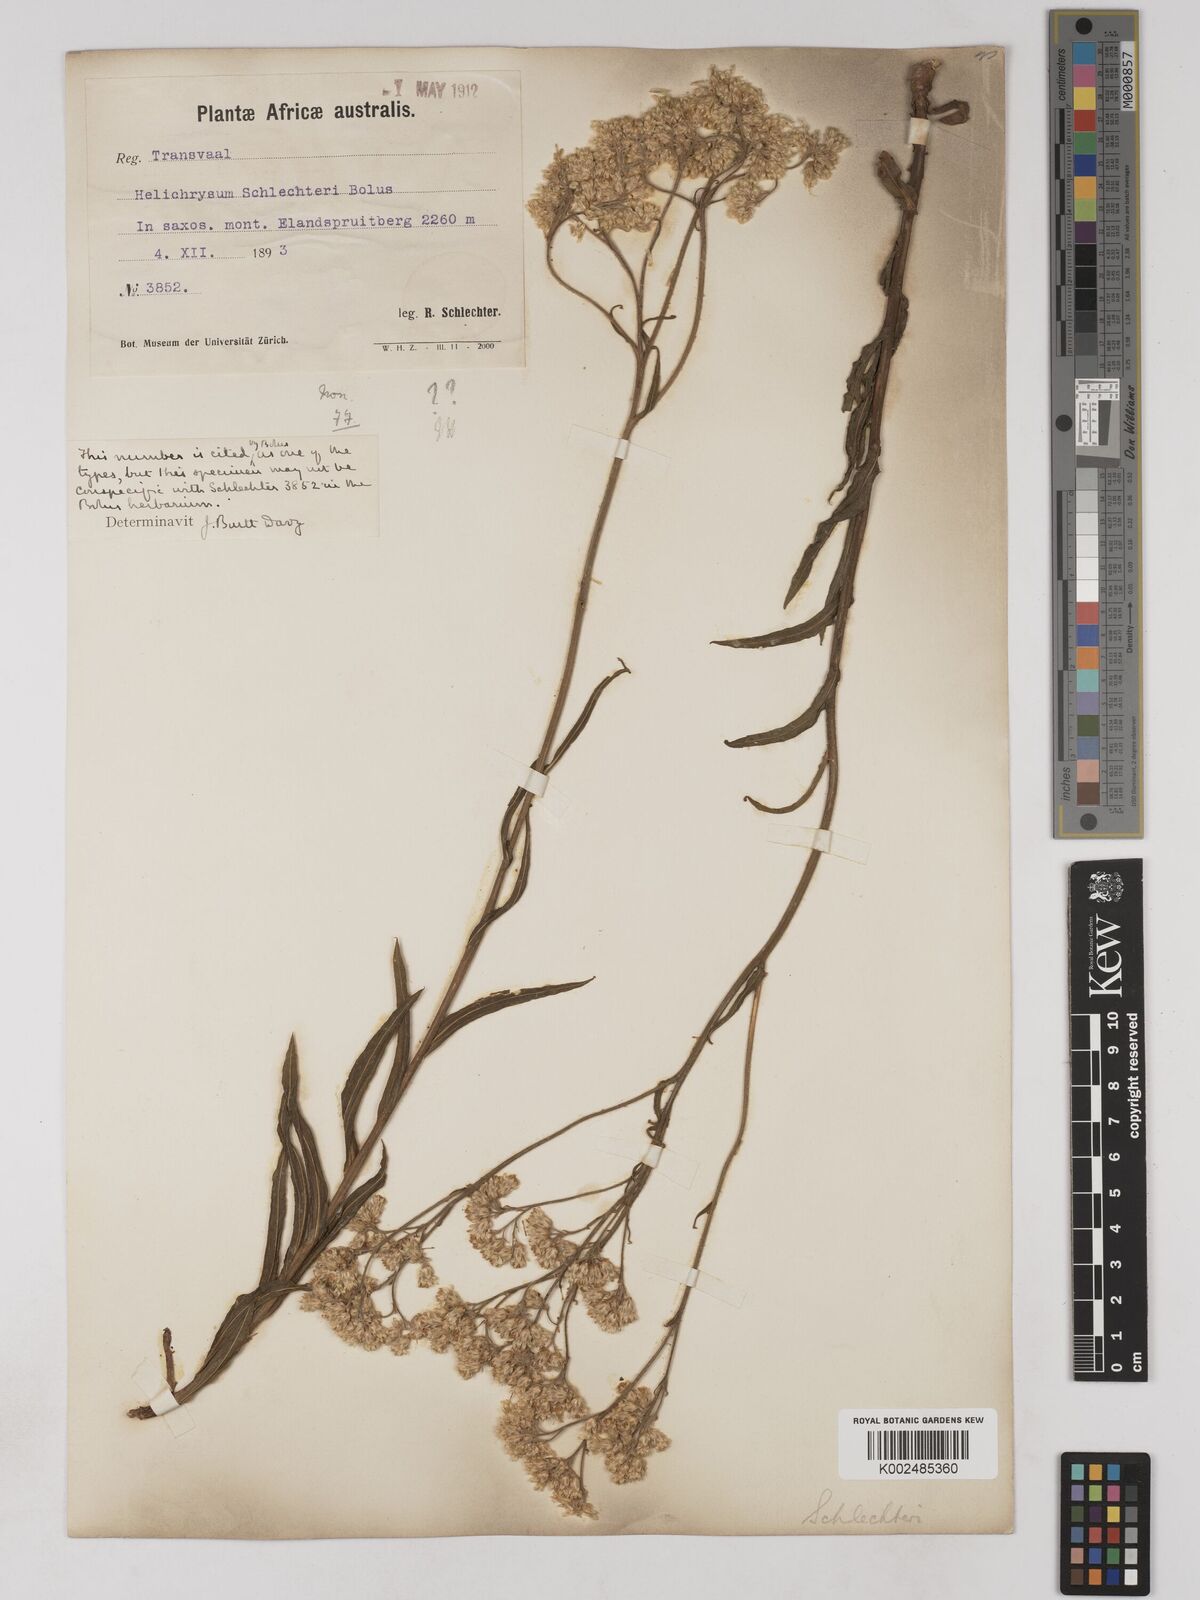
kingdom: Plantae
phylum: Tracheophyta
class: Magnoliopsida
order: Asterales
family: Asteraceae
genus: Helichrysum
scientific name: Helichrysum acutatum
